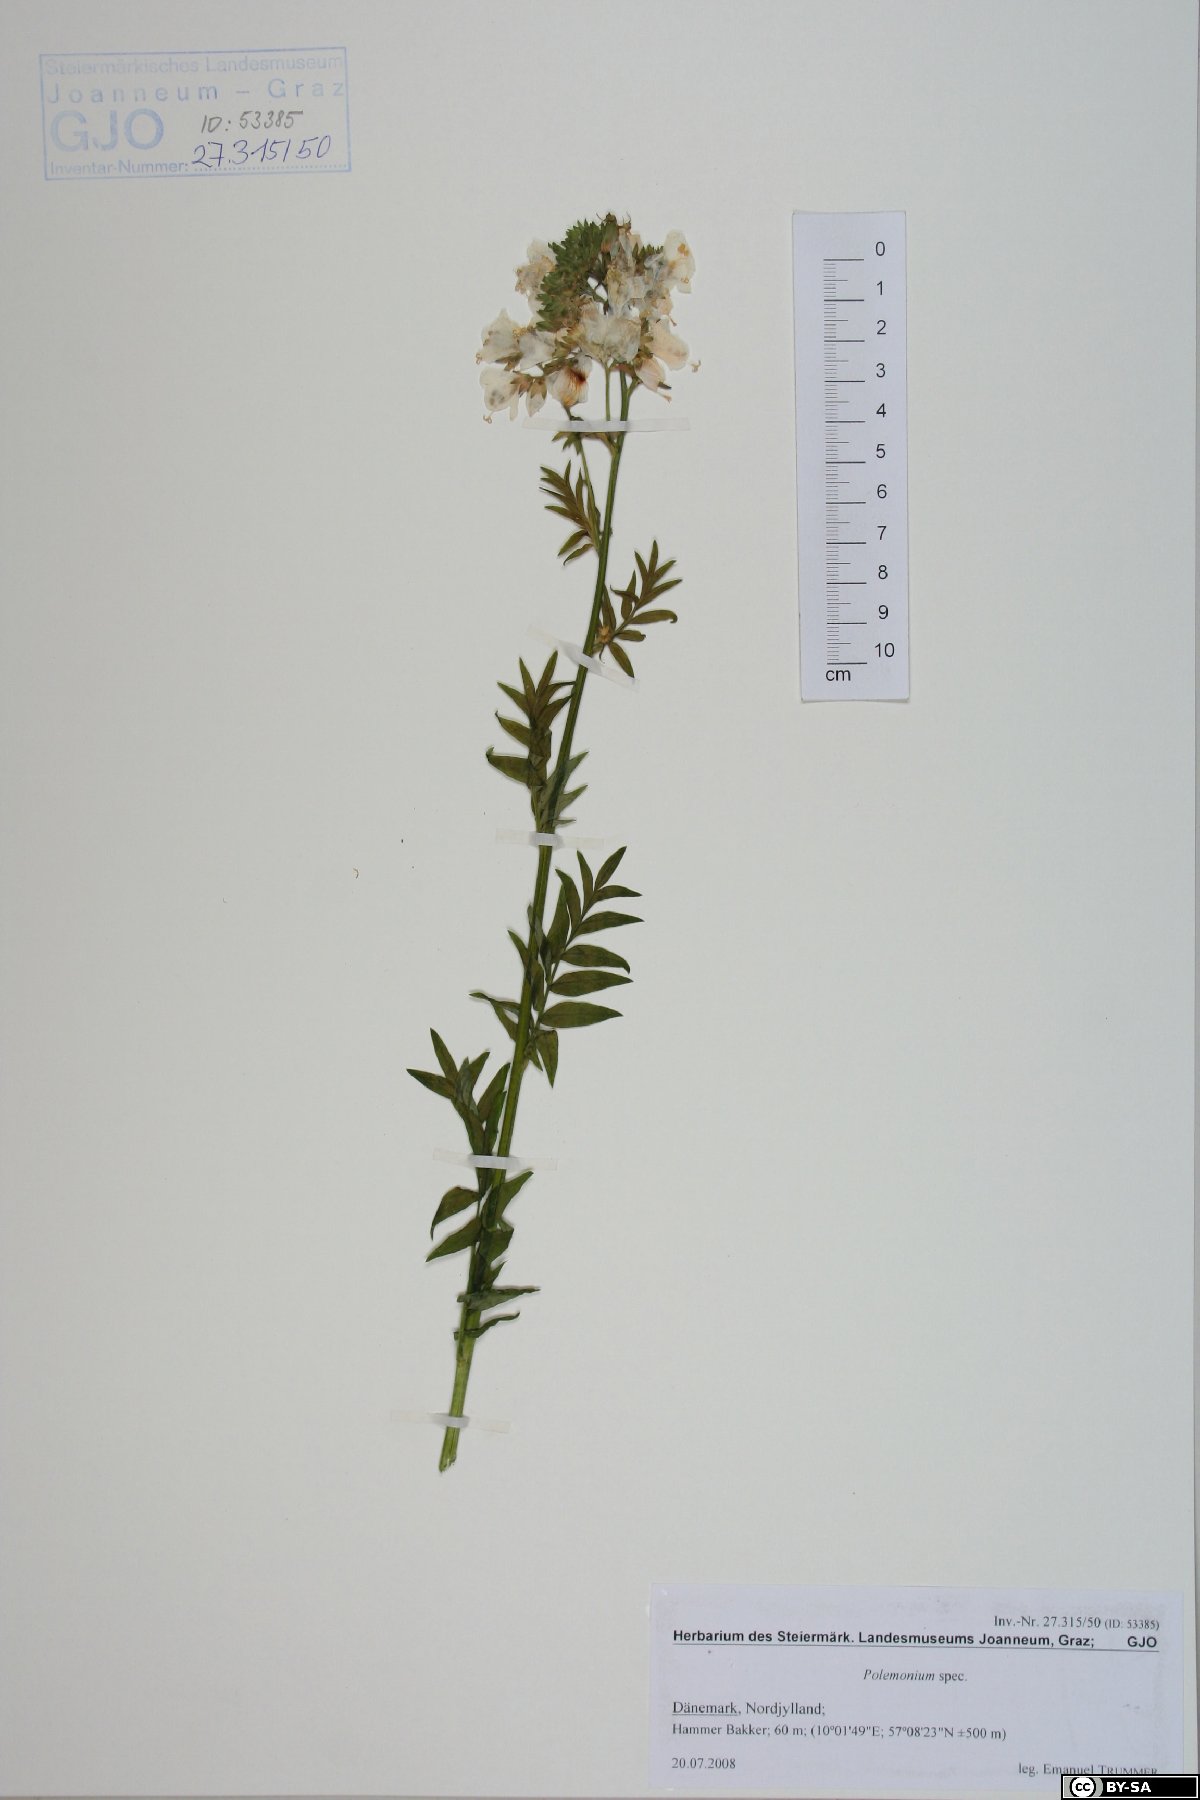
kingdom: Plantae
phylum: Tracheophyta
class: Magnoliopsida
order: Ericales
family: Polemoniaceae
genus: Polemonium
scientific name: Polemonium
